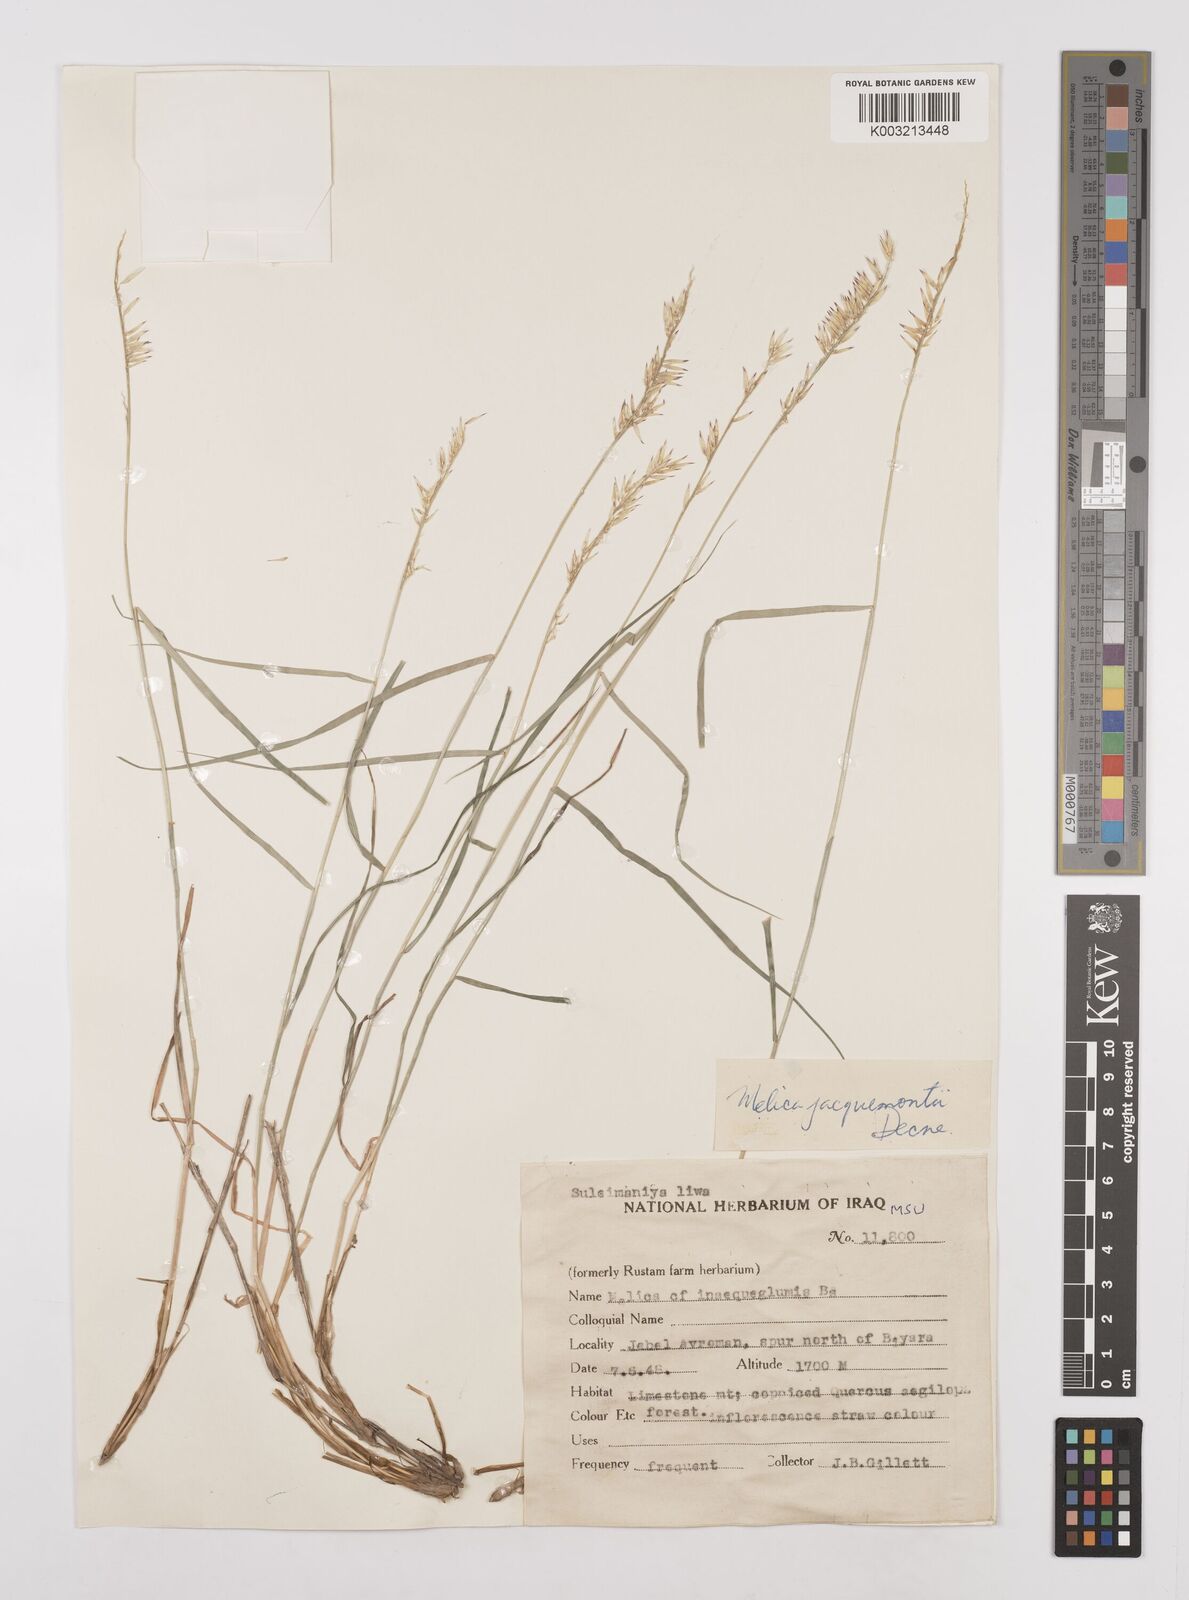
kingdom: Plantae
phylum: Tracheophyta
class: Liliopsida
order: Poales
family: Poaceae
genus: Melica
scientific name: Melica persica
